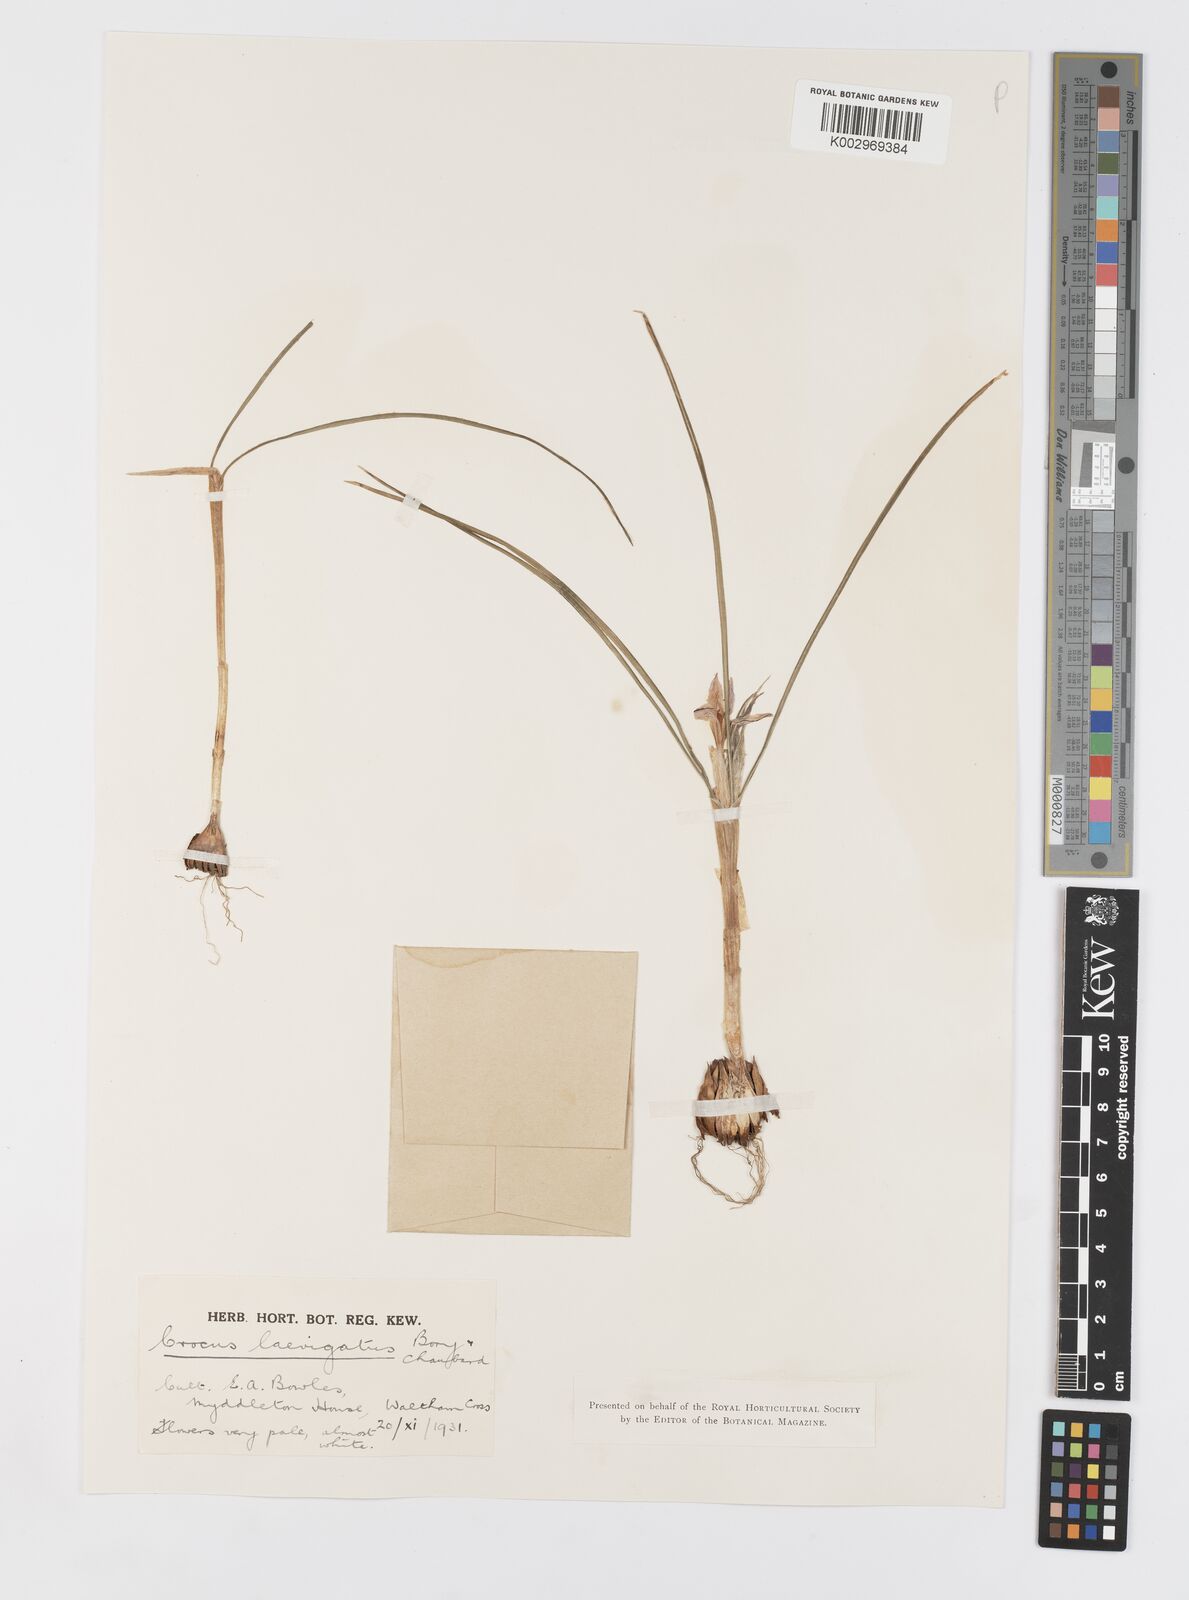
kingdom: Plantae
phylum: Tracheophyta
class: Liliopsida
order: Asparagales
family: Iridaceae
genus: Crocus
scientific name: Crocus laevigatus
